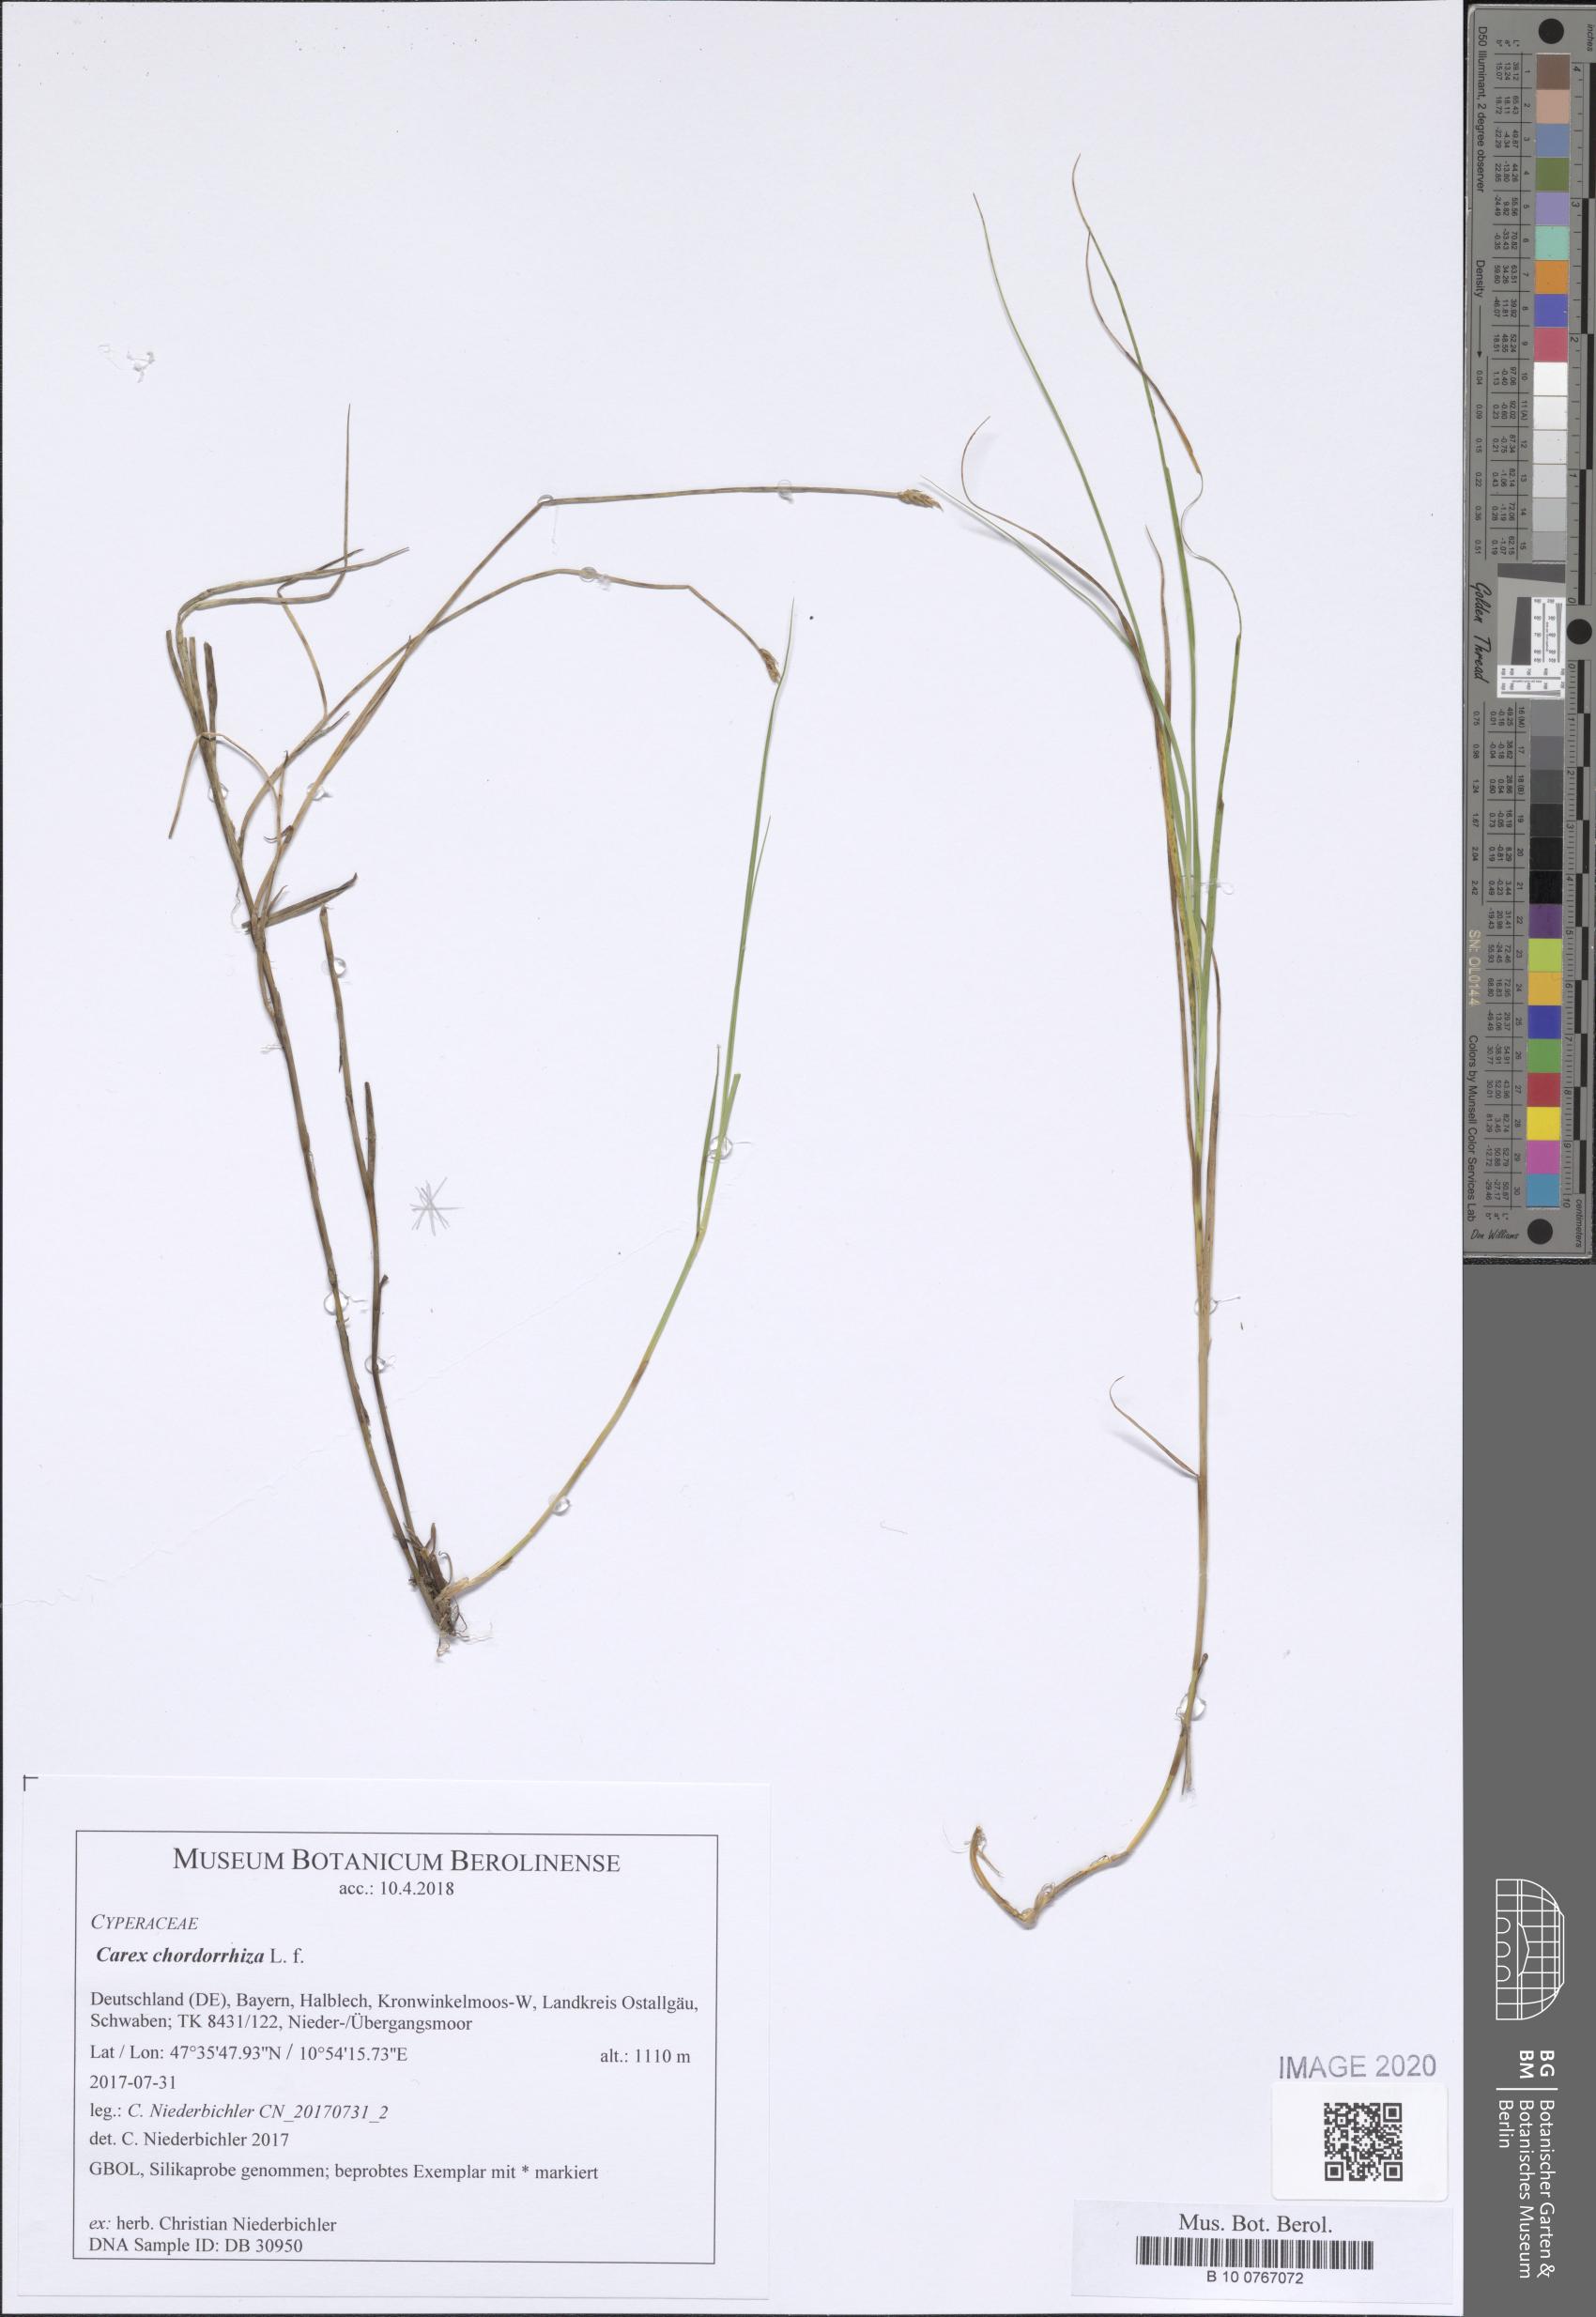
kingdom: Plantae
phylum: Tracheophyta
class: Liliopsida
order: Poales
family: Cyperaceae
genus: Carex
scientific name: Carex chordorrhiza
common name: String sedge
